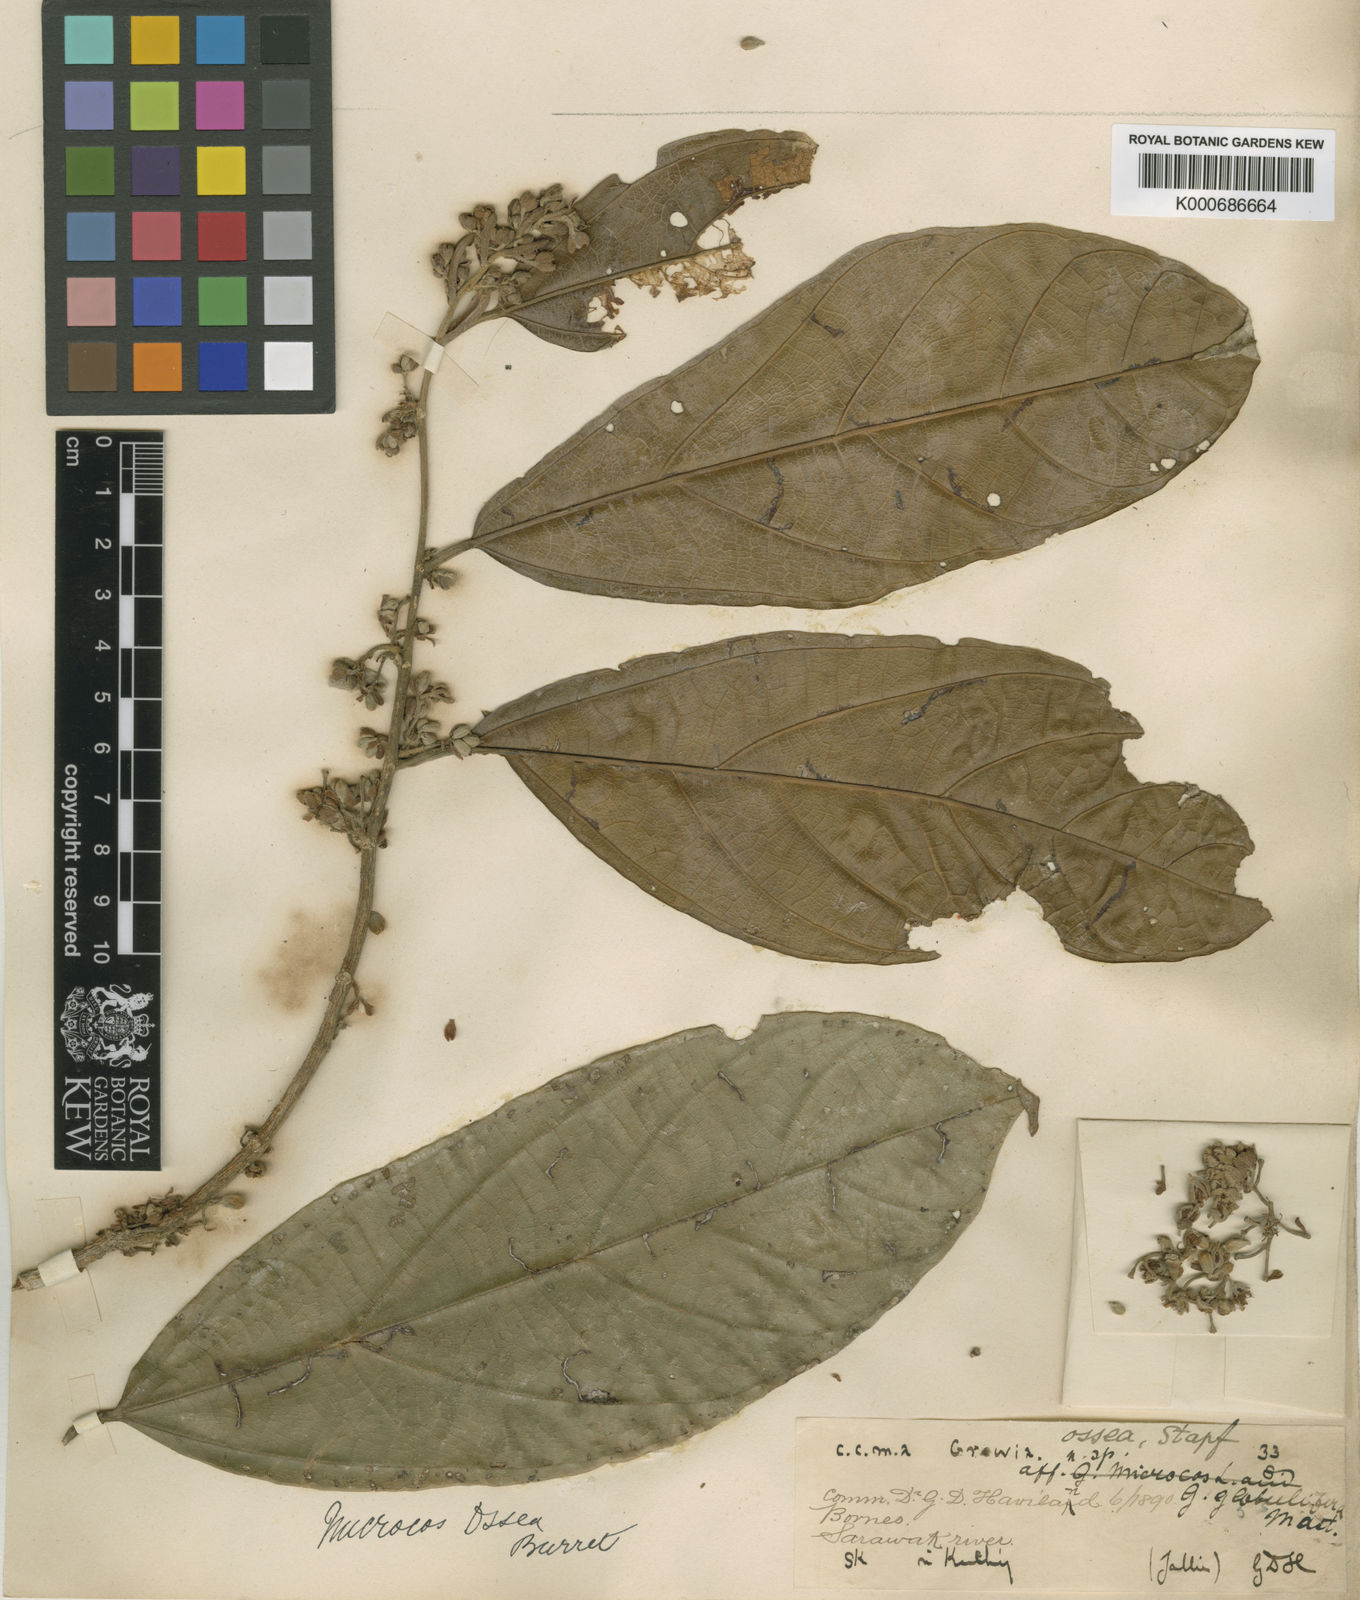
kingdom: Plantae
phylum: Tracheophyta
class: Magnoliopsida
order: Malvales
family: Malvaceae
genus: Microcos
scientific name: Microcos ossea
